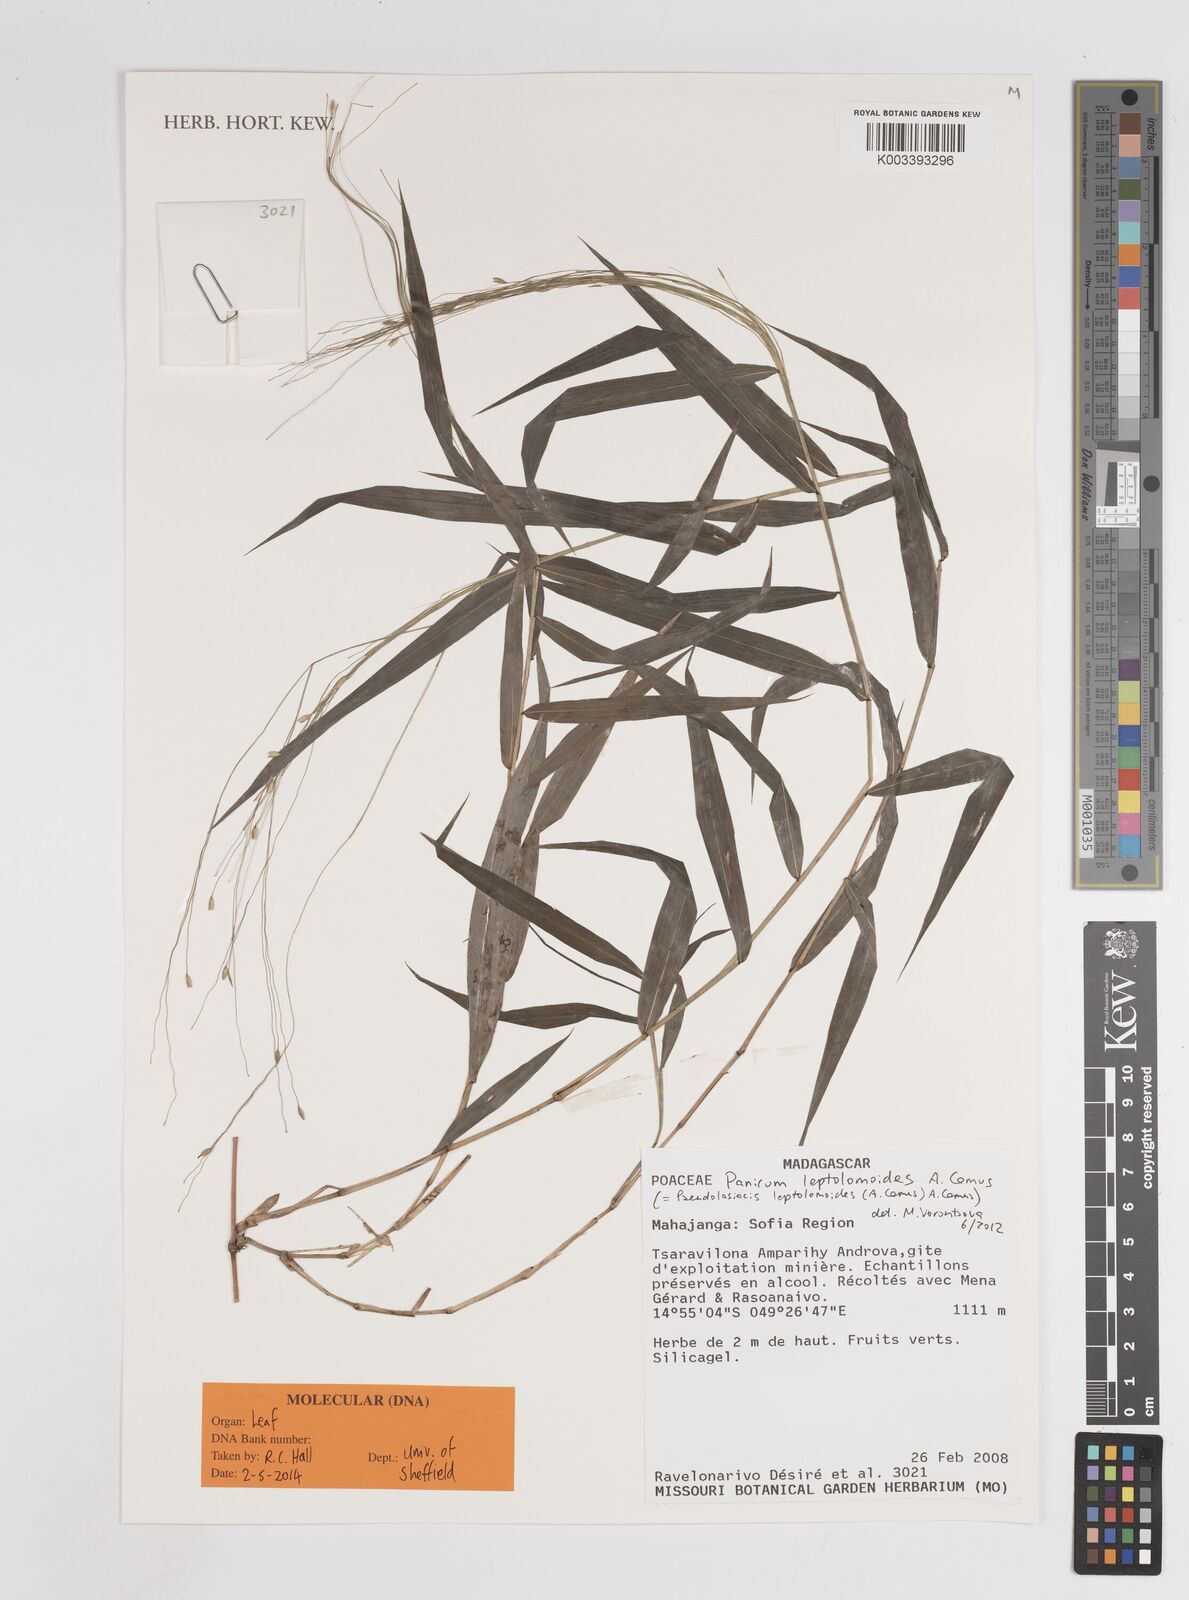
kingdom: Plantae
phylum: Tracheophyta
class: Liliopsida
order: Poales
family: Poaceae
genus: Pseudolasiacis
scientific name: Pseudolasiacis leptolomoides
